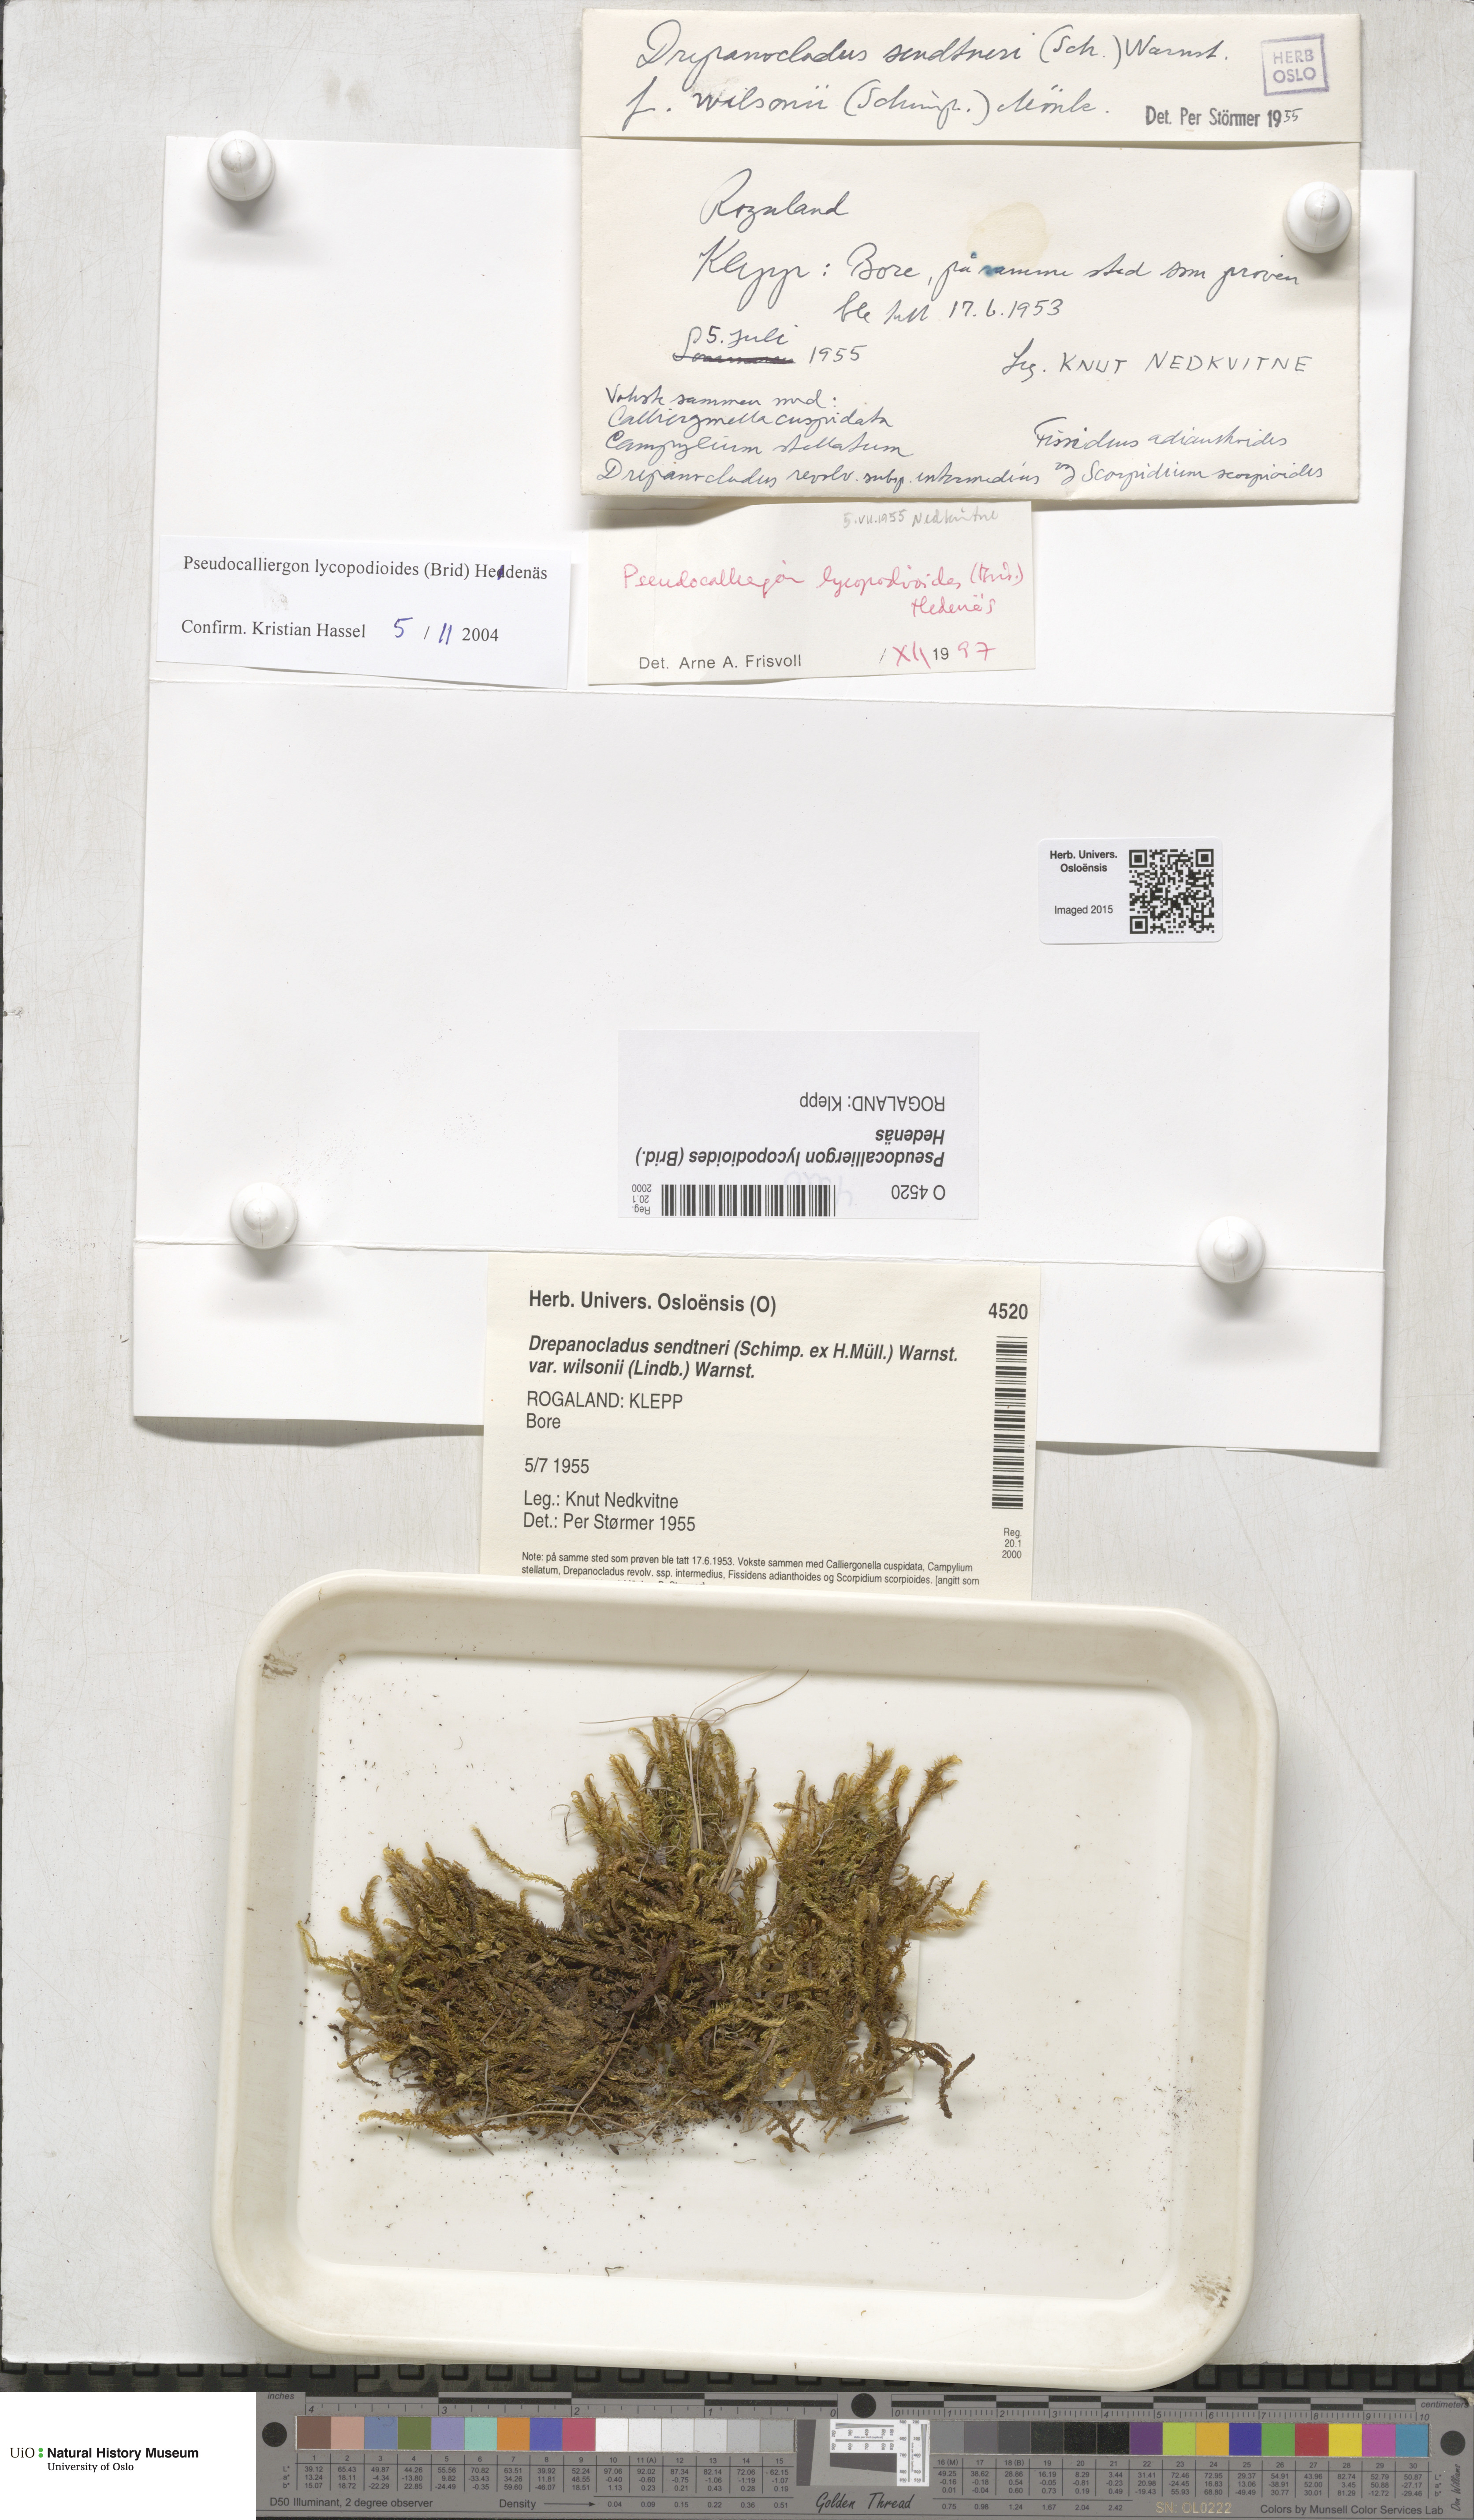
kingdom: Plantae
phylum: Bryophyta
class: Bryopsida
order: Hypnales
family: Amblystegiaceae
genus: Drepanocladus
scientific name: Drepanocladus lycopodioides
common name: Large hook-moss
